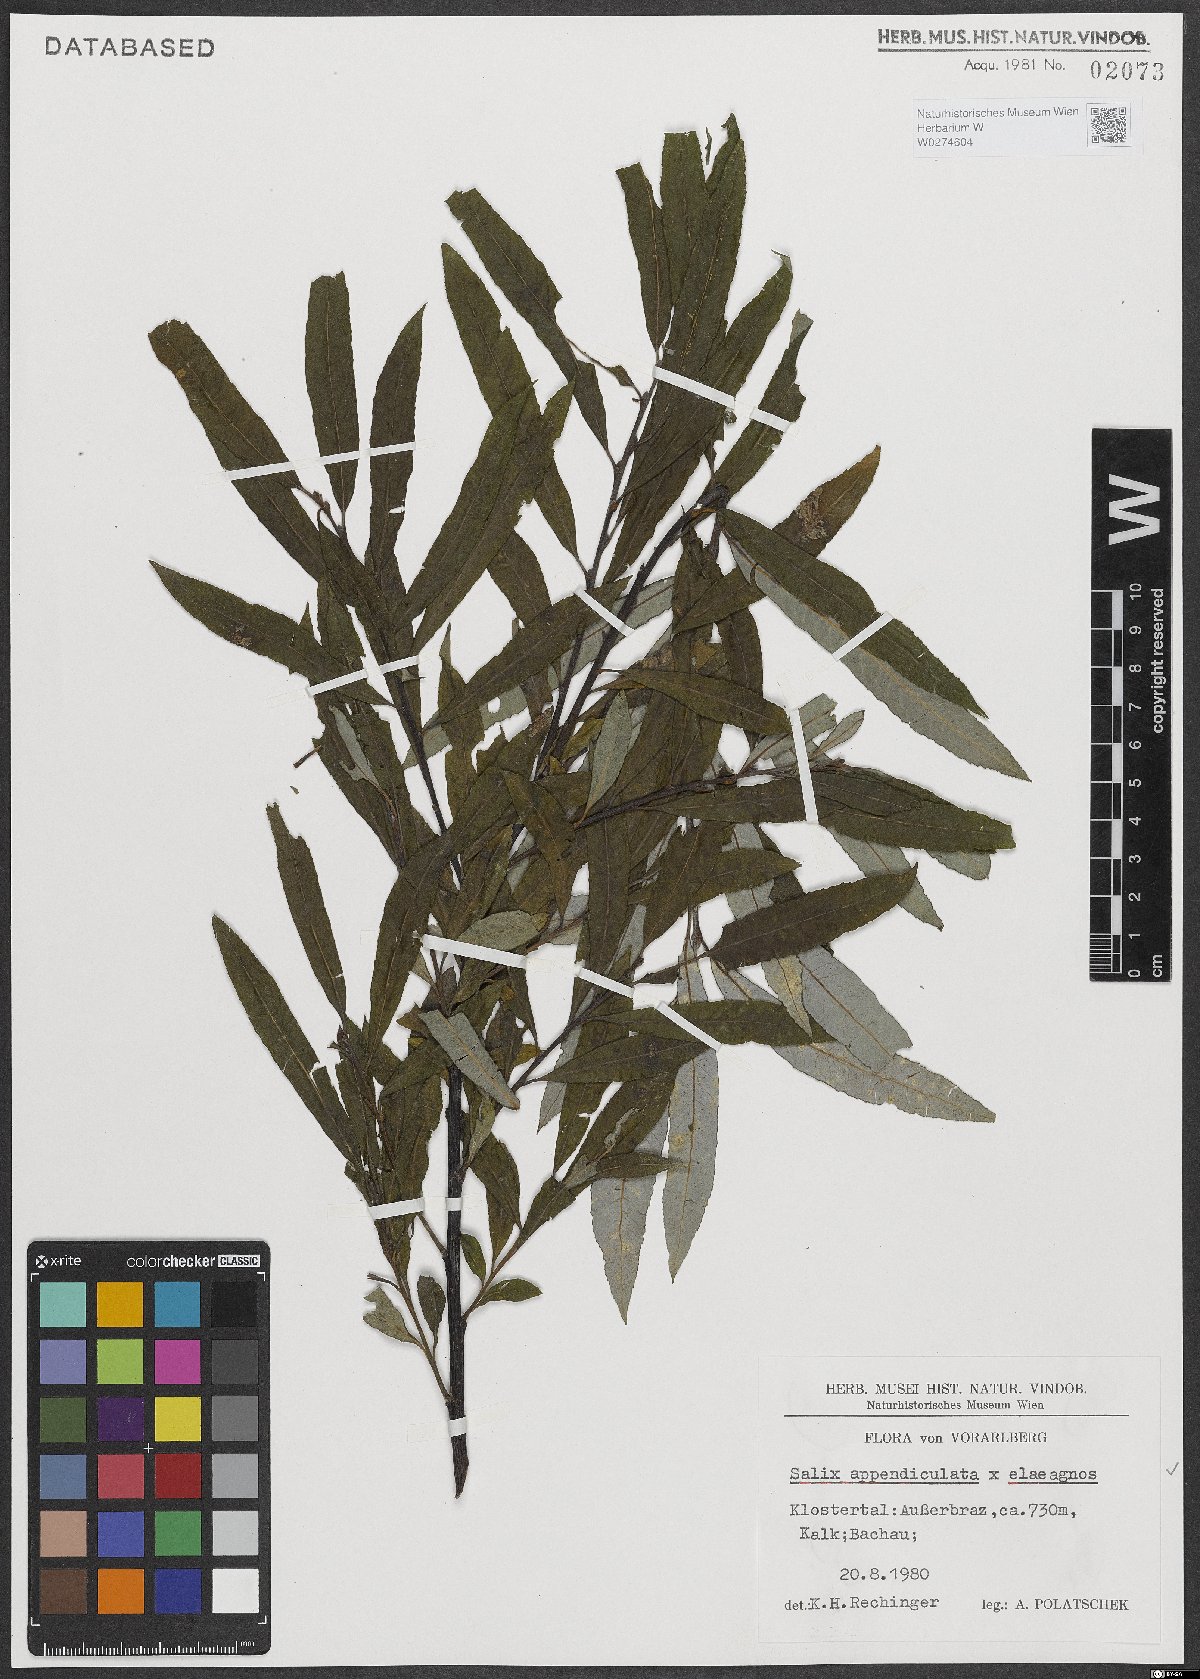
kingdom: Plantae
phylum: Tracheophyta
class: Magnoliopsida
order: Malpighiales
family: Salicaceae
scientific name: Salicaceae
